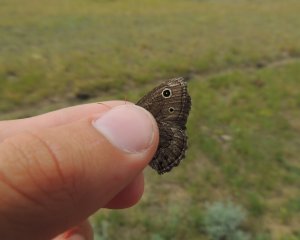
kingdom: Animalia
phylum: Arthropoda
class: Insecta
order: Lepidoptera
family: Nymphalidae
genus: Cercyonis
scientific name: Cercyonis oetus
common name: Small Wood-Nymph
